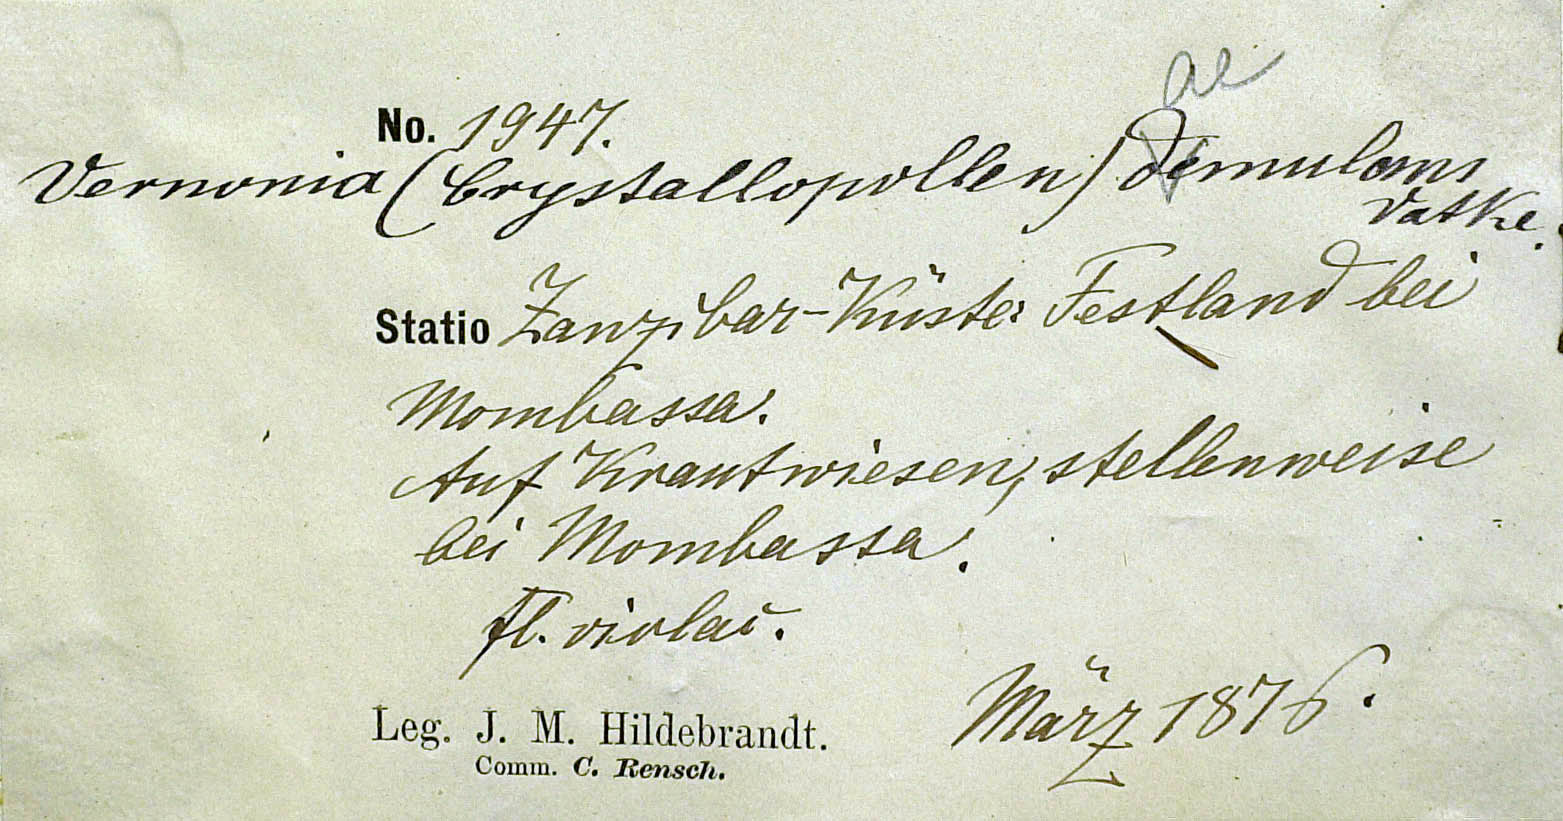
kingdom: Plantae
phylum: Tracheophyta
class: Magnoliopsida
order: Asterales
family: Asteraceae
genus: Vernoniastrum
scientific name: Vernoniastrum aemulans
